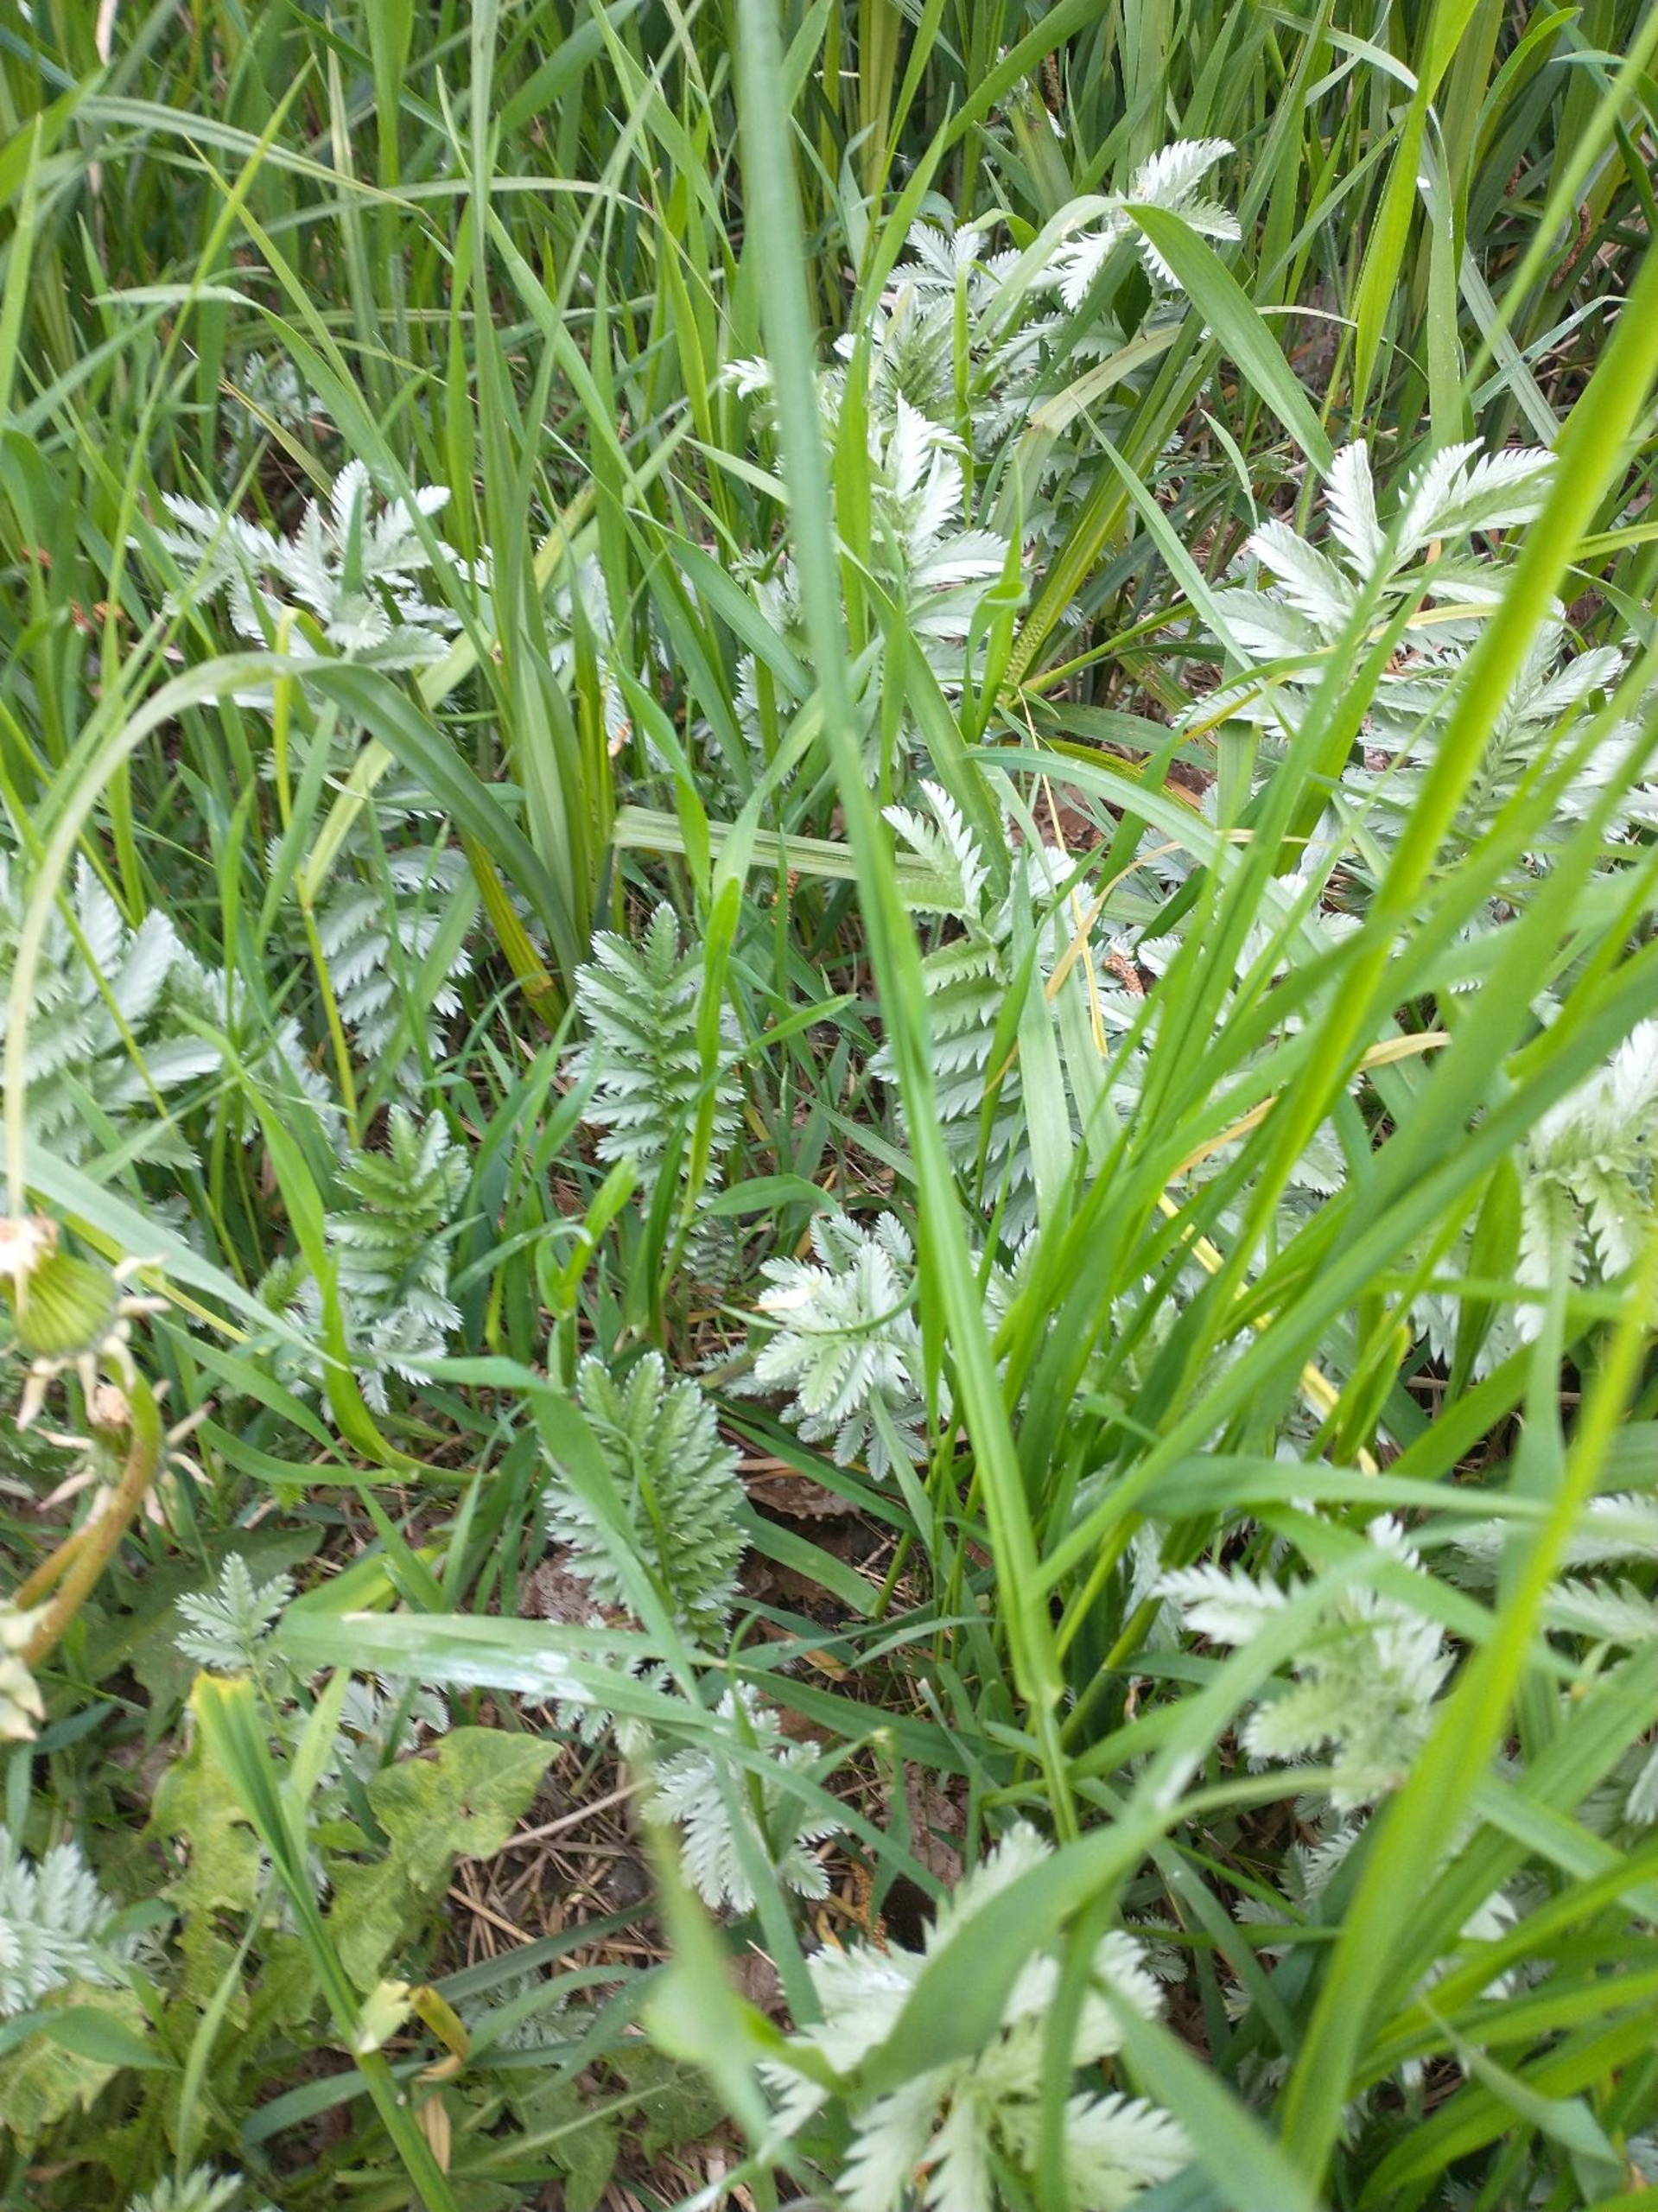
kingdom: Plantae
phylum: Tracheophyta
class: Magnoliopsida
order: Rosales
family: Rosaceae
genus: Argentina
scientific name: Argentina anserina
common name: Gåsepotentil
